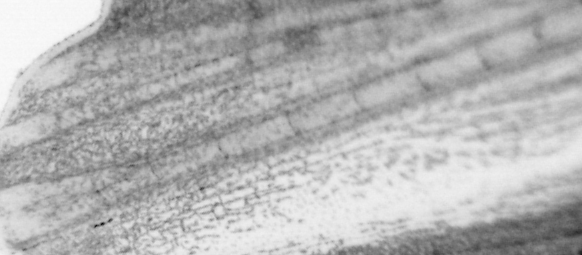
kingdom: Animalia
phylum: Chordata
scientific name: Chordata
